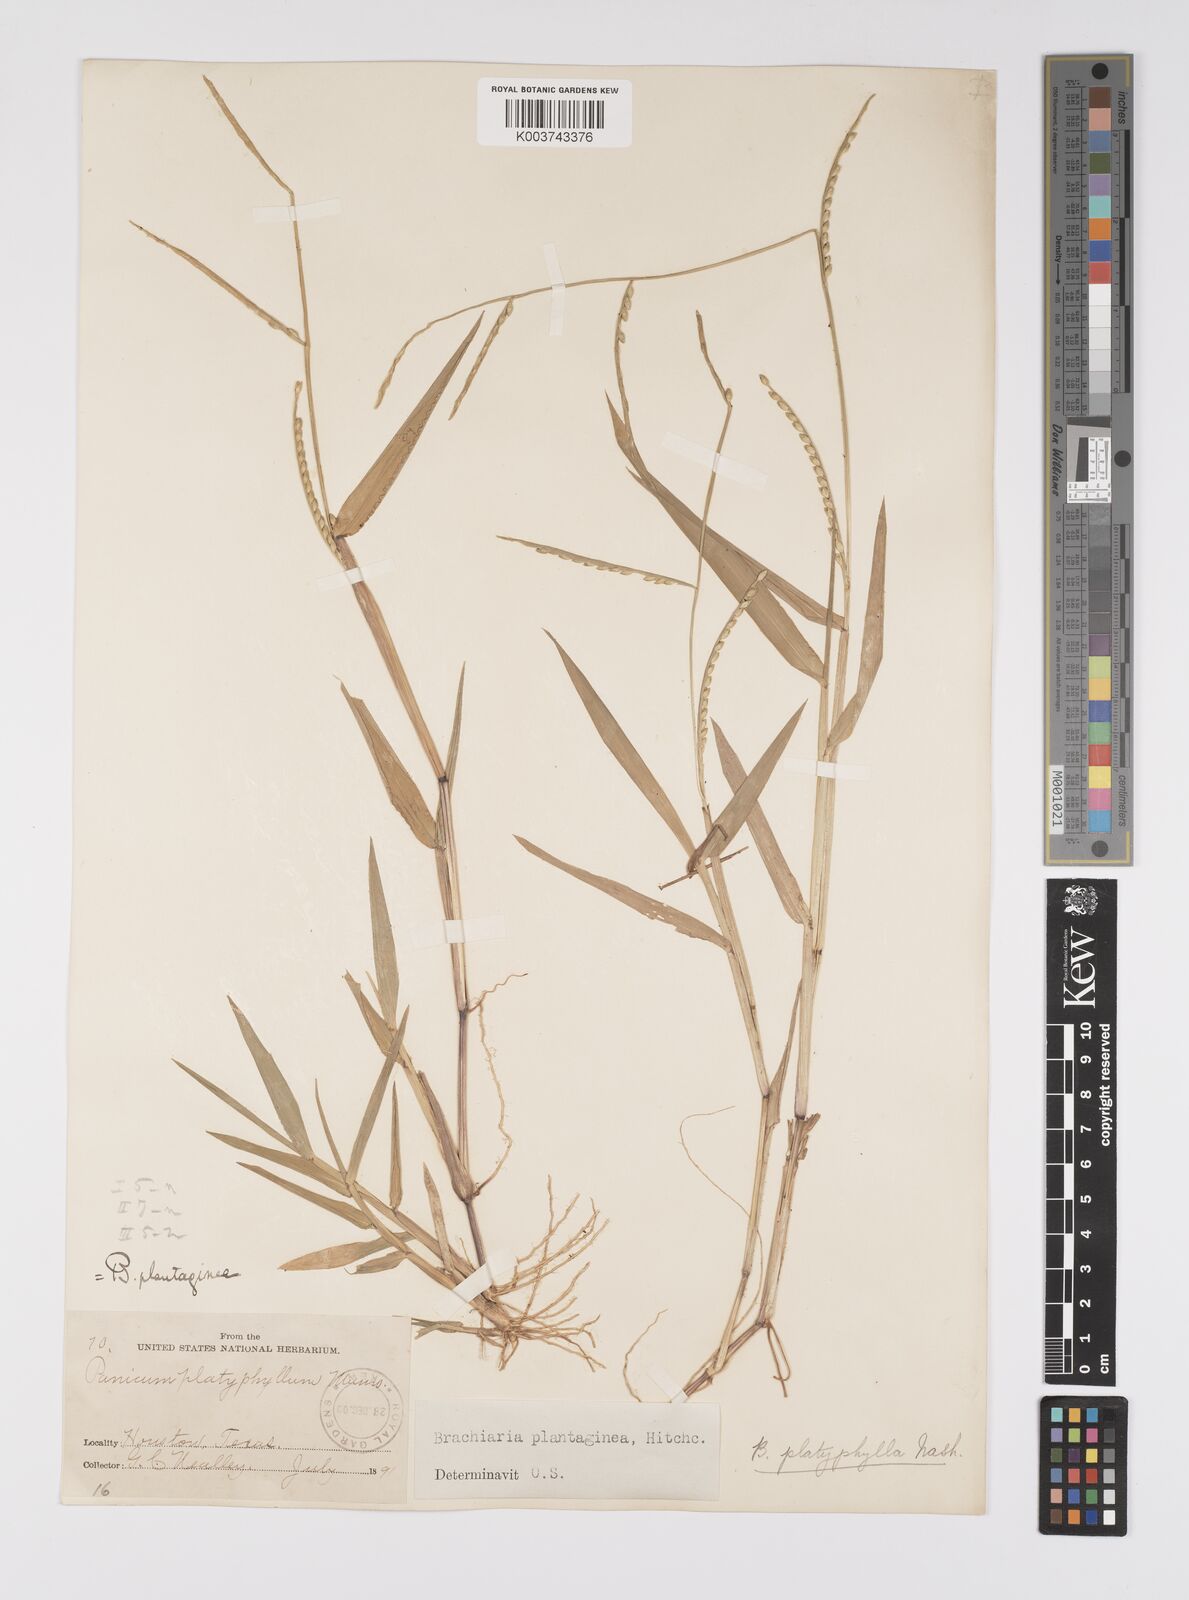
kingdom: Plantae
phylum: Tracheophyta
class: Liliopsida
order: Poales
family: Poaceae
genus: Urochloa
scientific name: Urochloa platyphylla
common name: White para grass
